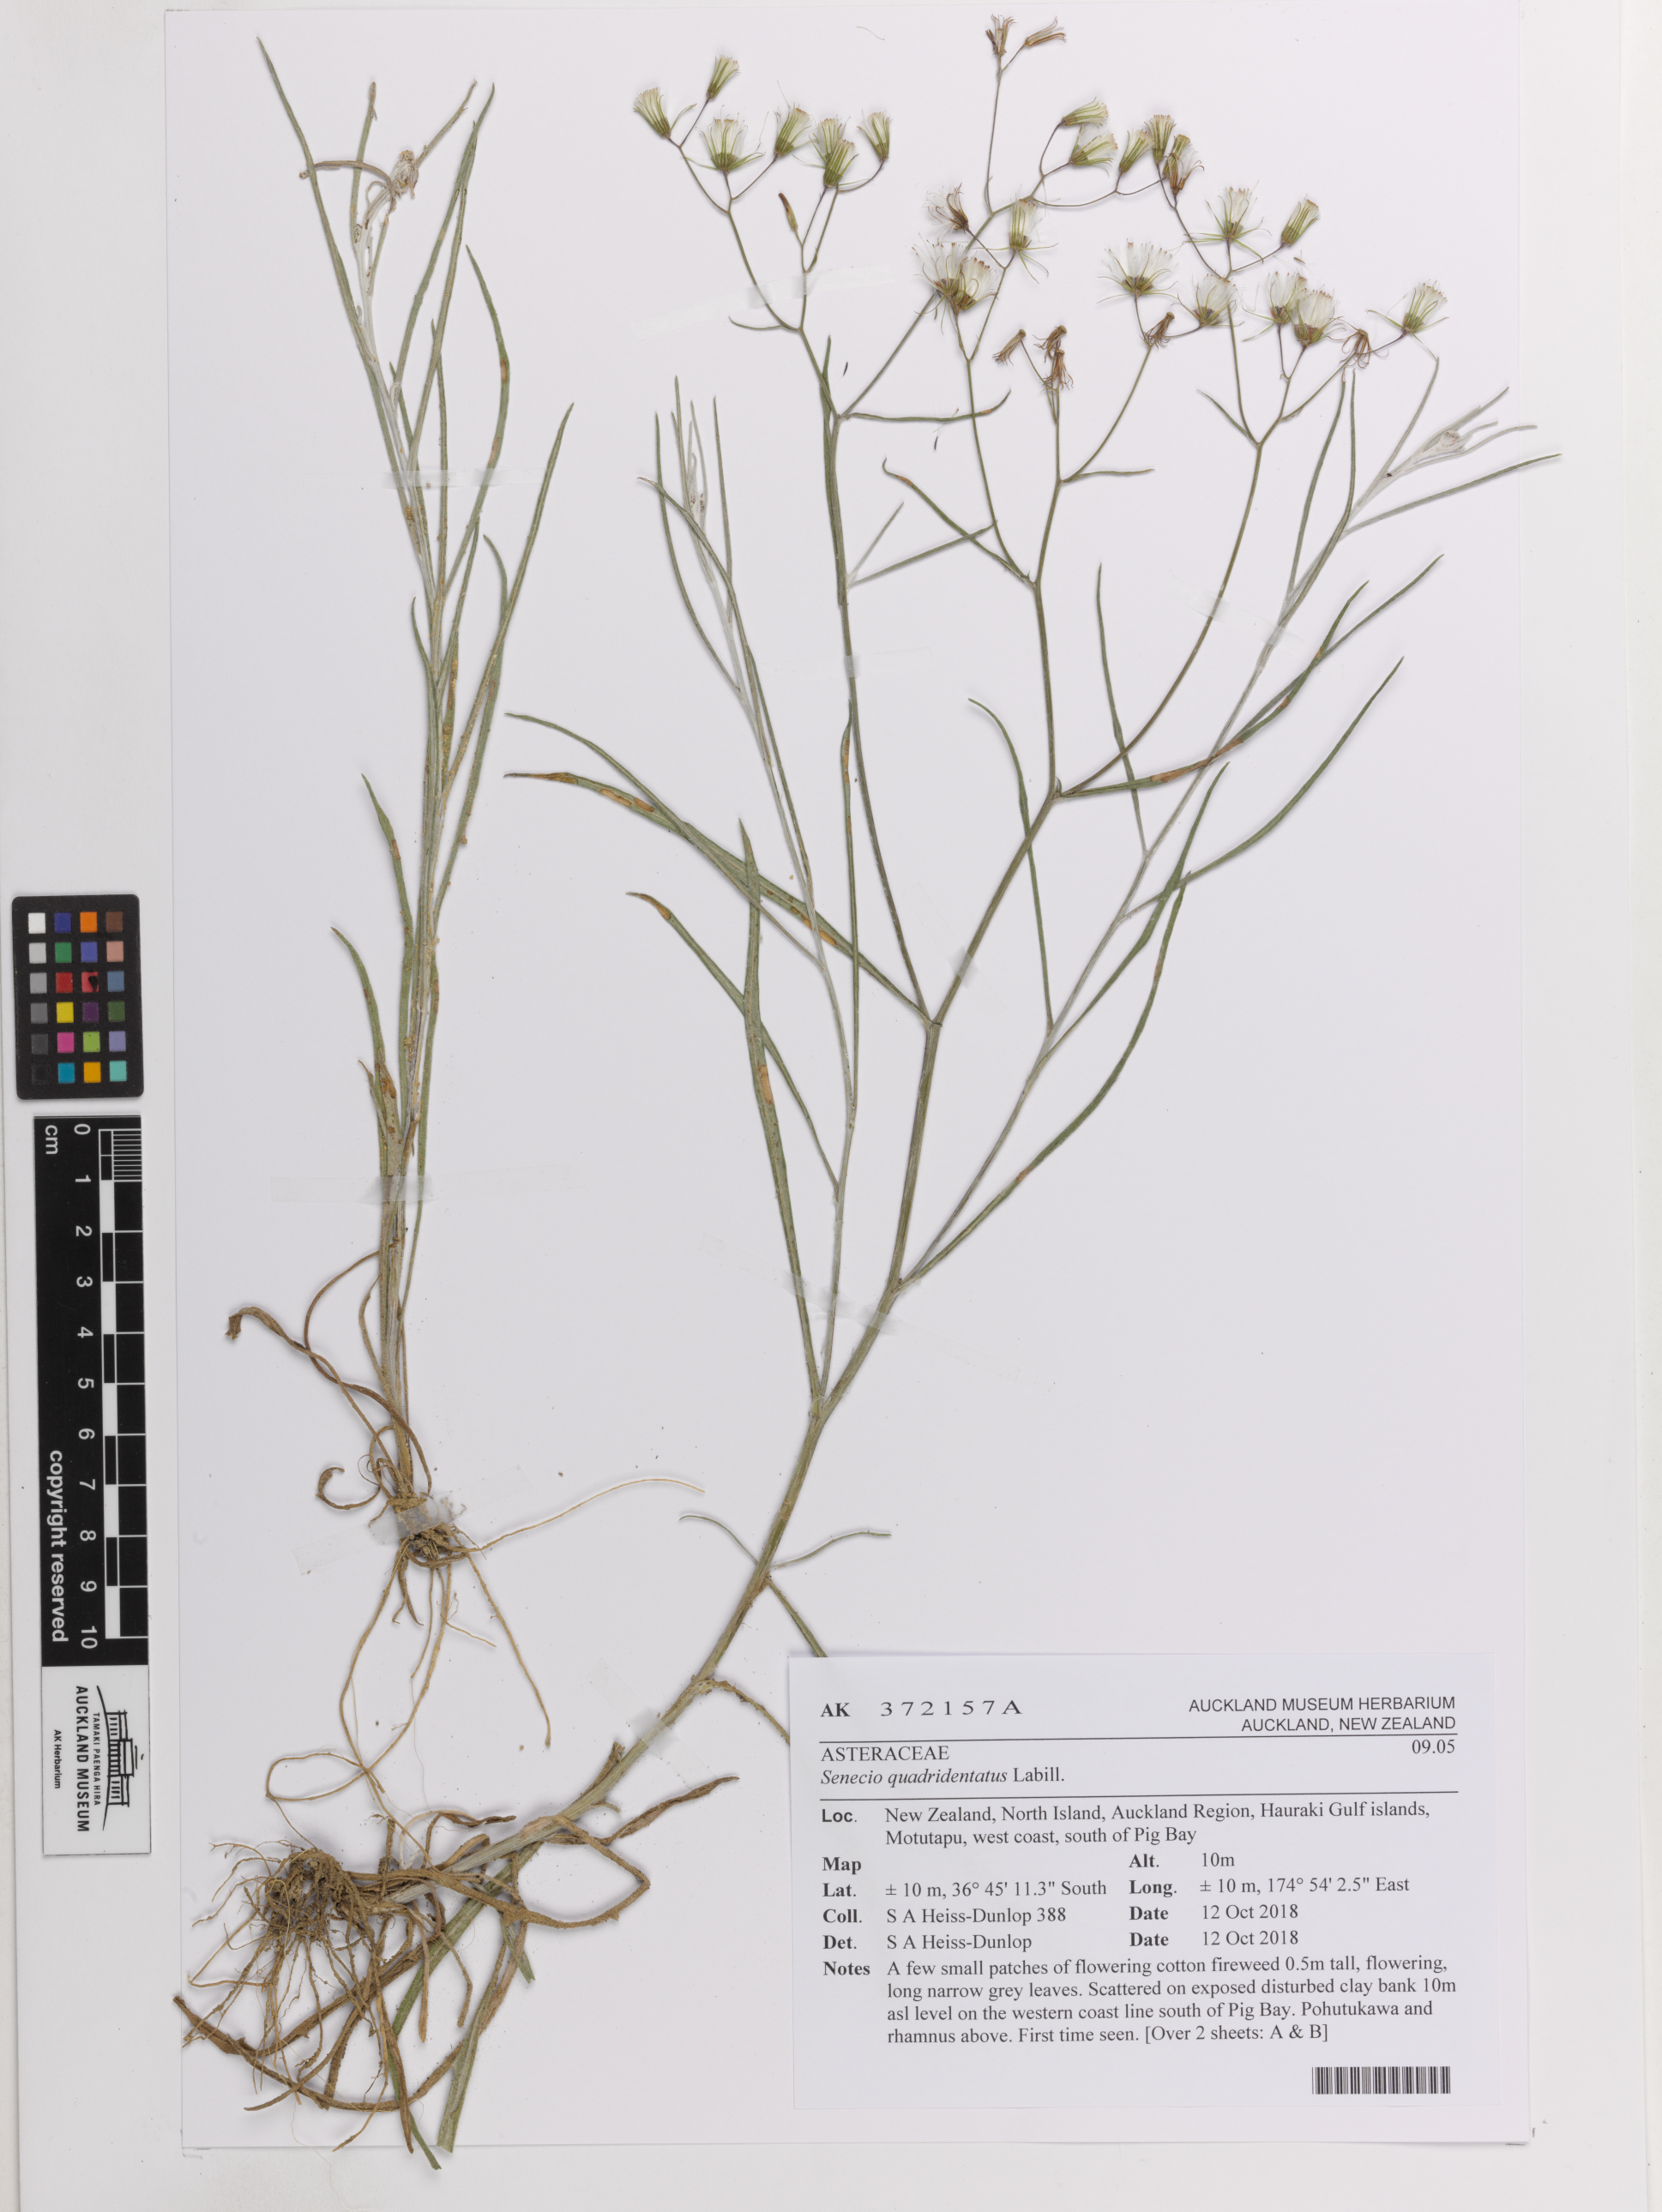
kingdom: Plantae
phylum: Tracheophyta
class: Magnoliopsida
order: Asterales
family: Asteraceae
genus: Senecio
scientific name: Senecio quadridentatus
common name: Cotton fireweed
